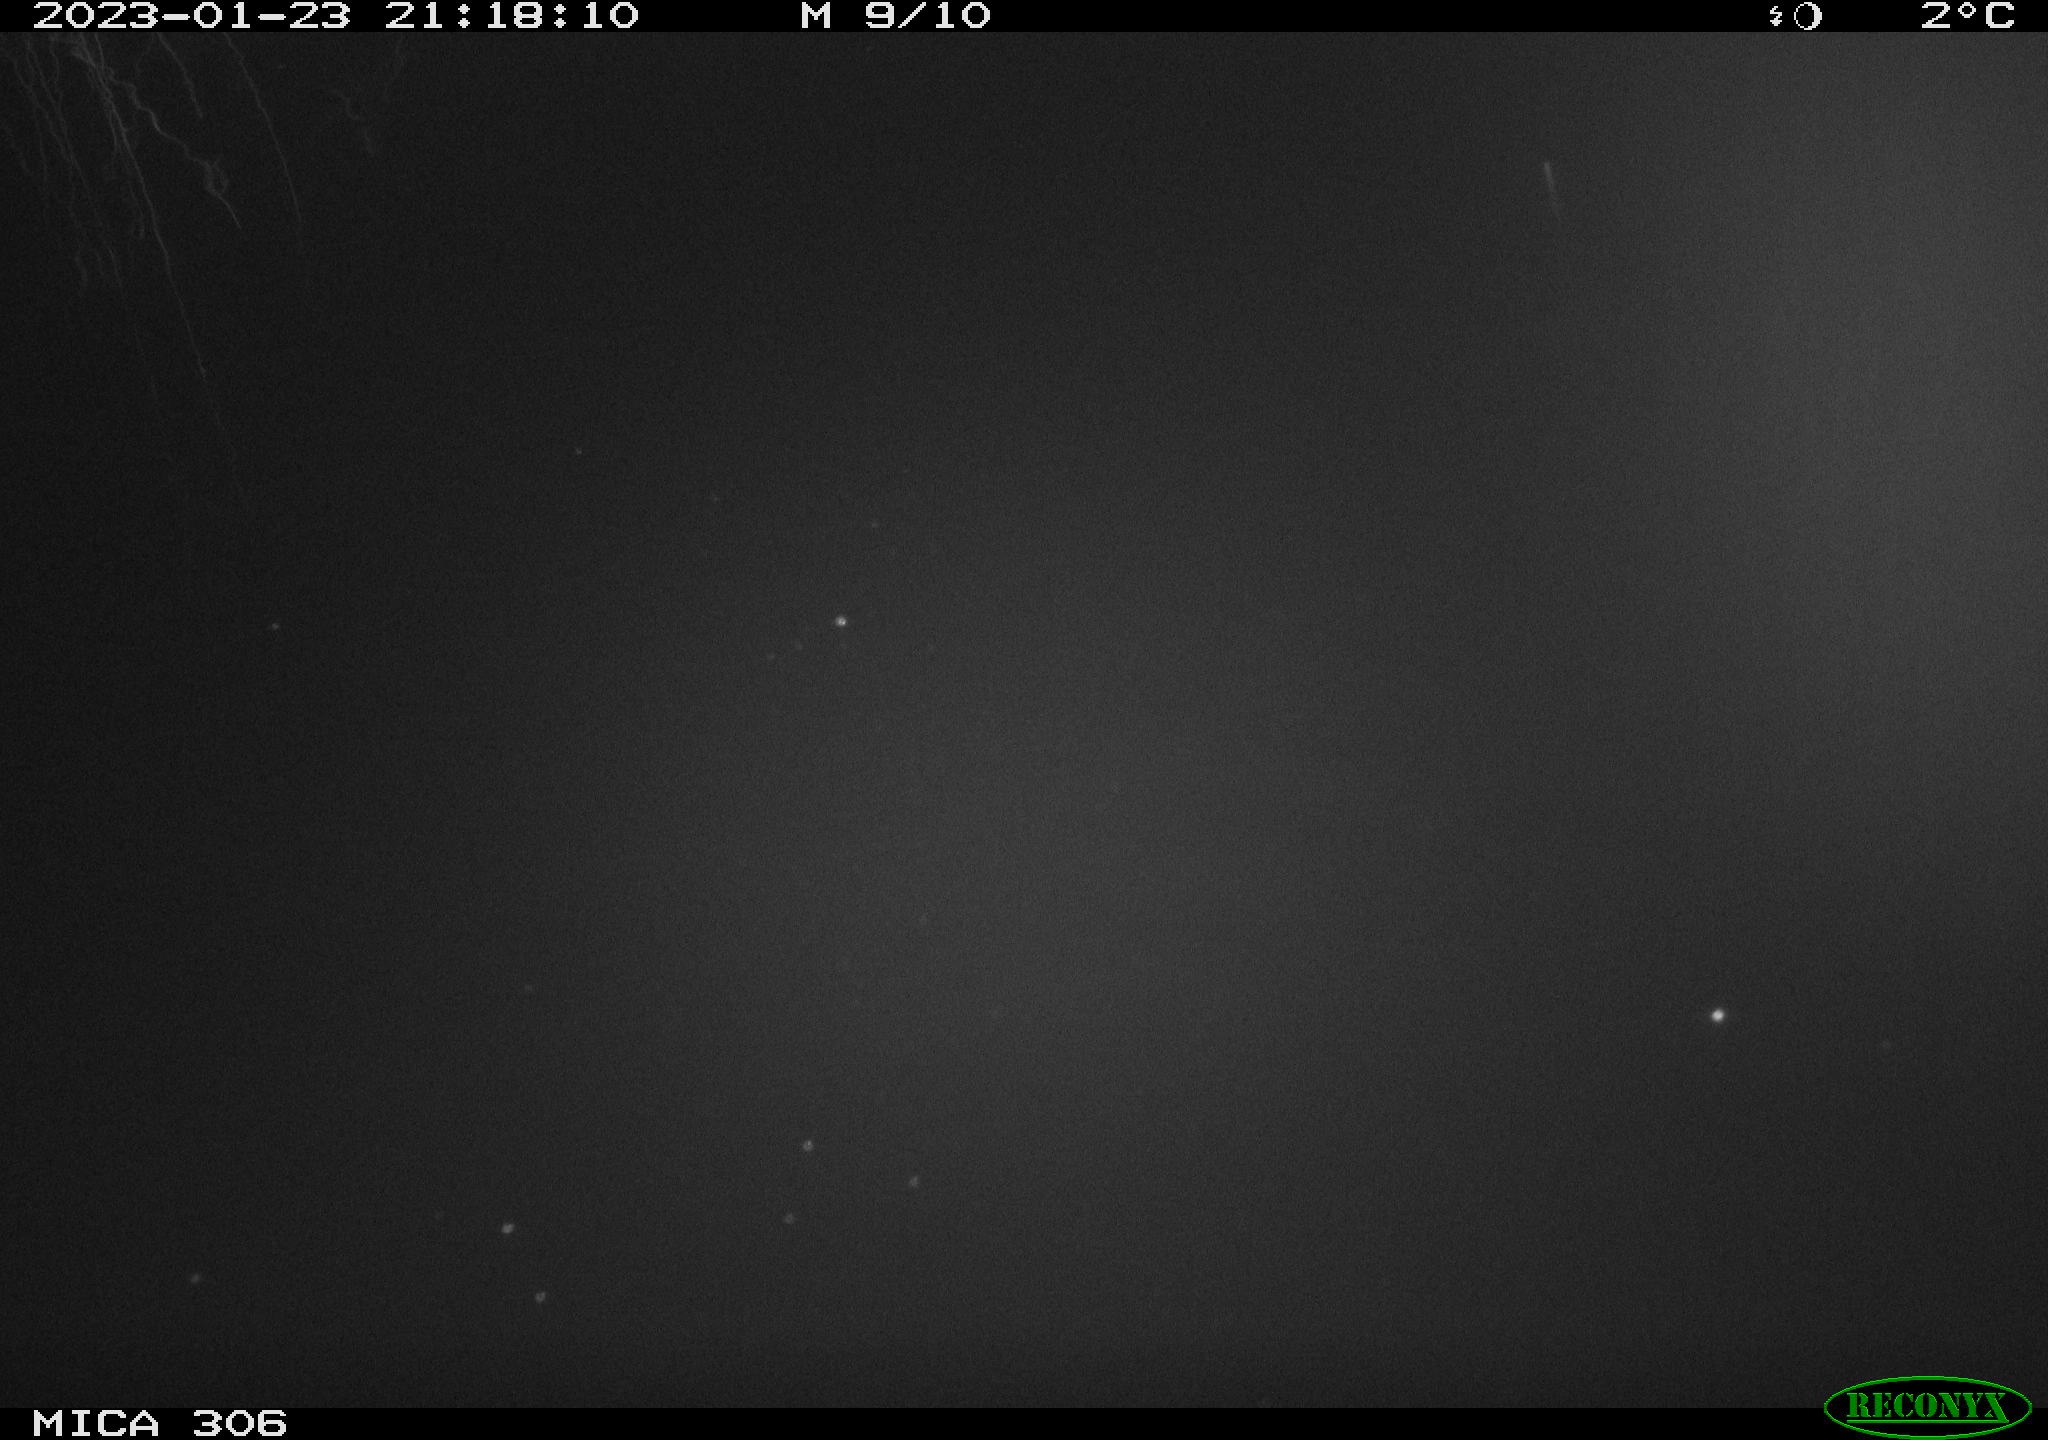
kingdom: Animalia
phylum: Chordata
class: Mammalia
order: Rodentia
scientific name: Rodentia
